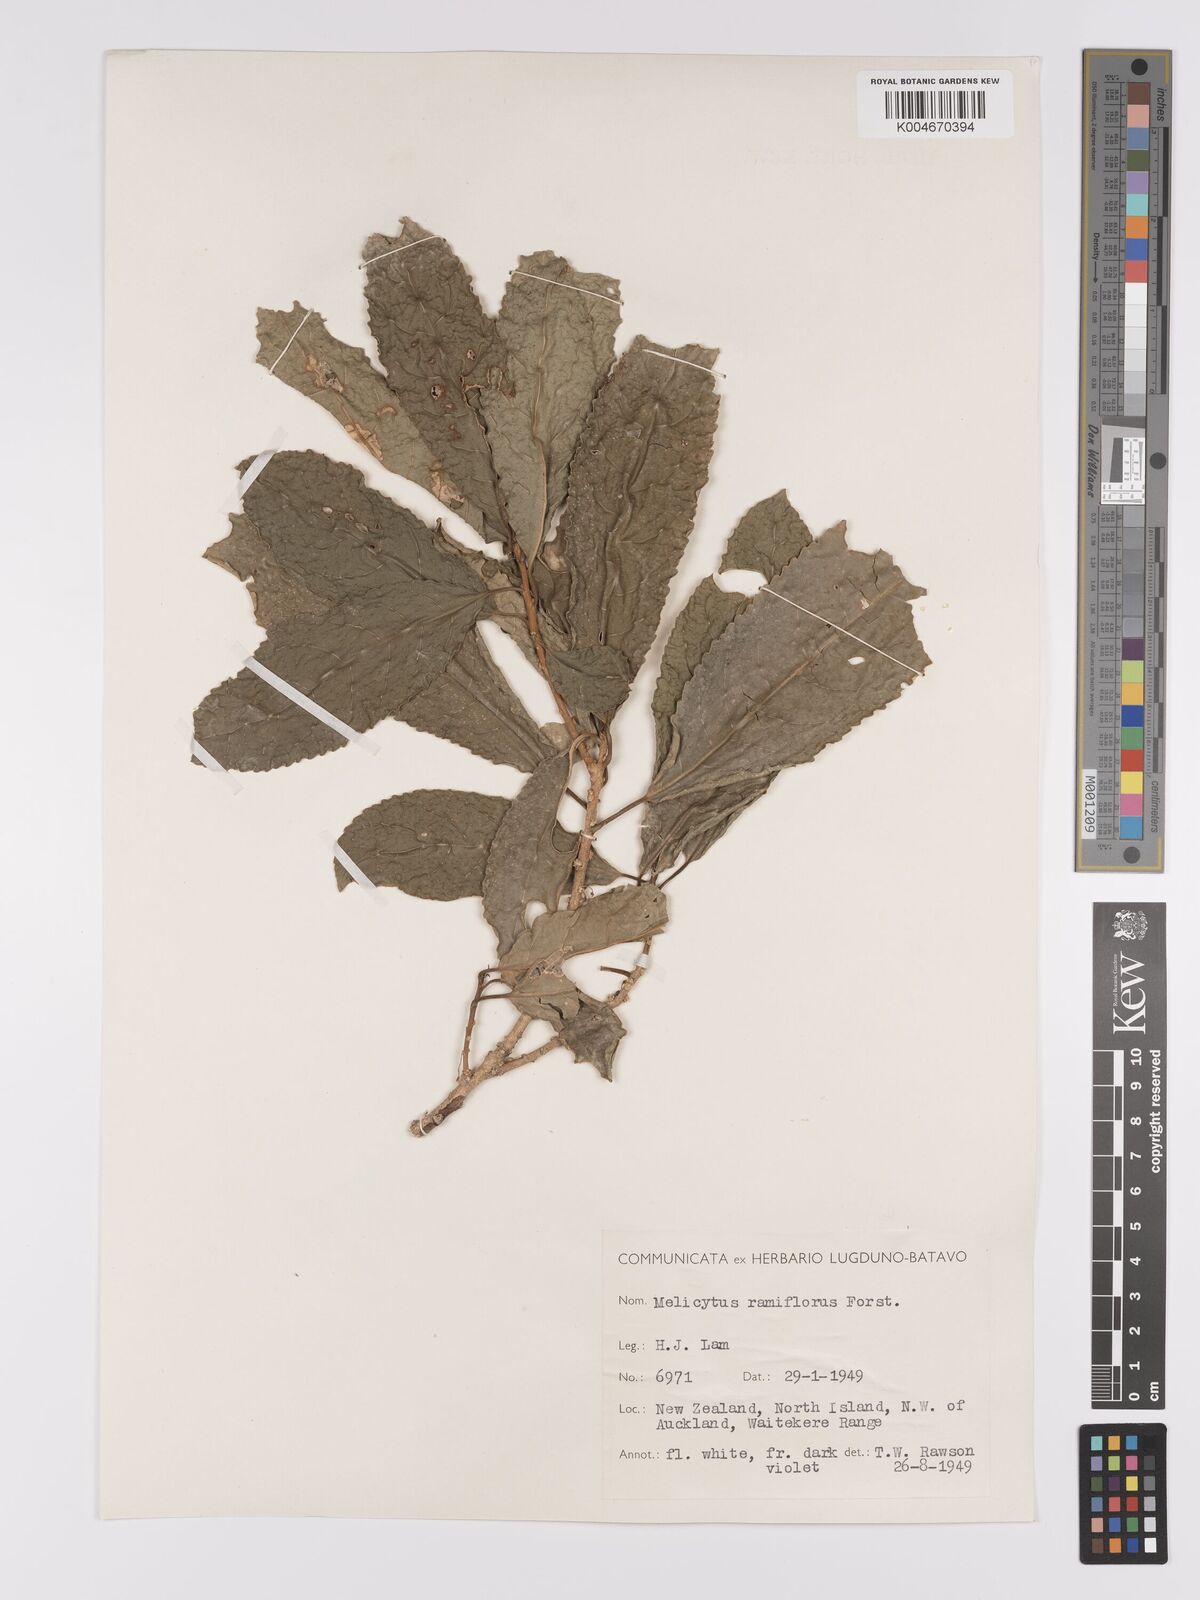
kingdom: Plantae
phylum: Tracheophyta
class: Magnoliopsida
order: Malpighiales
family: Violaceae
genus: Melicytus
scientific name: Melicytus ramiflorus
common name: Mahoe
